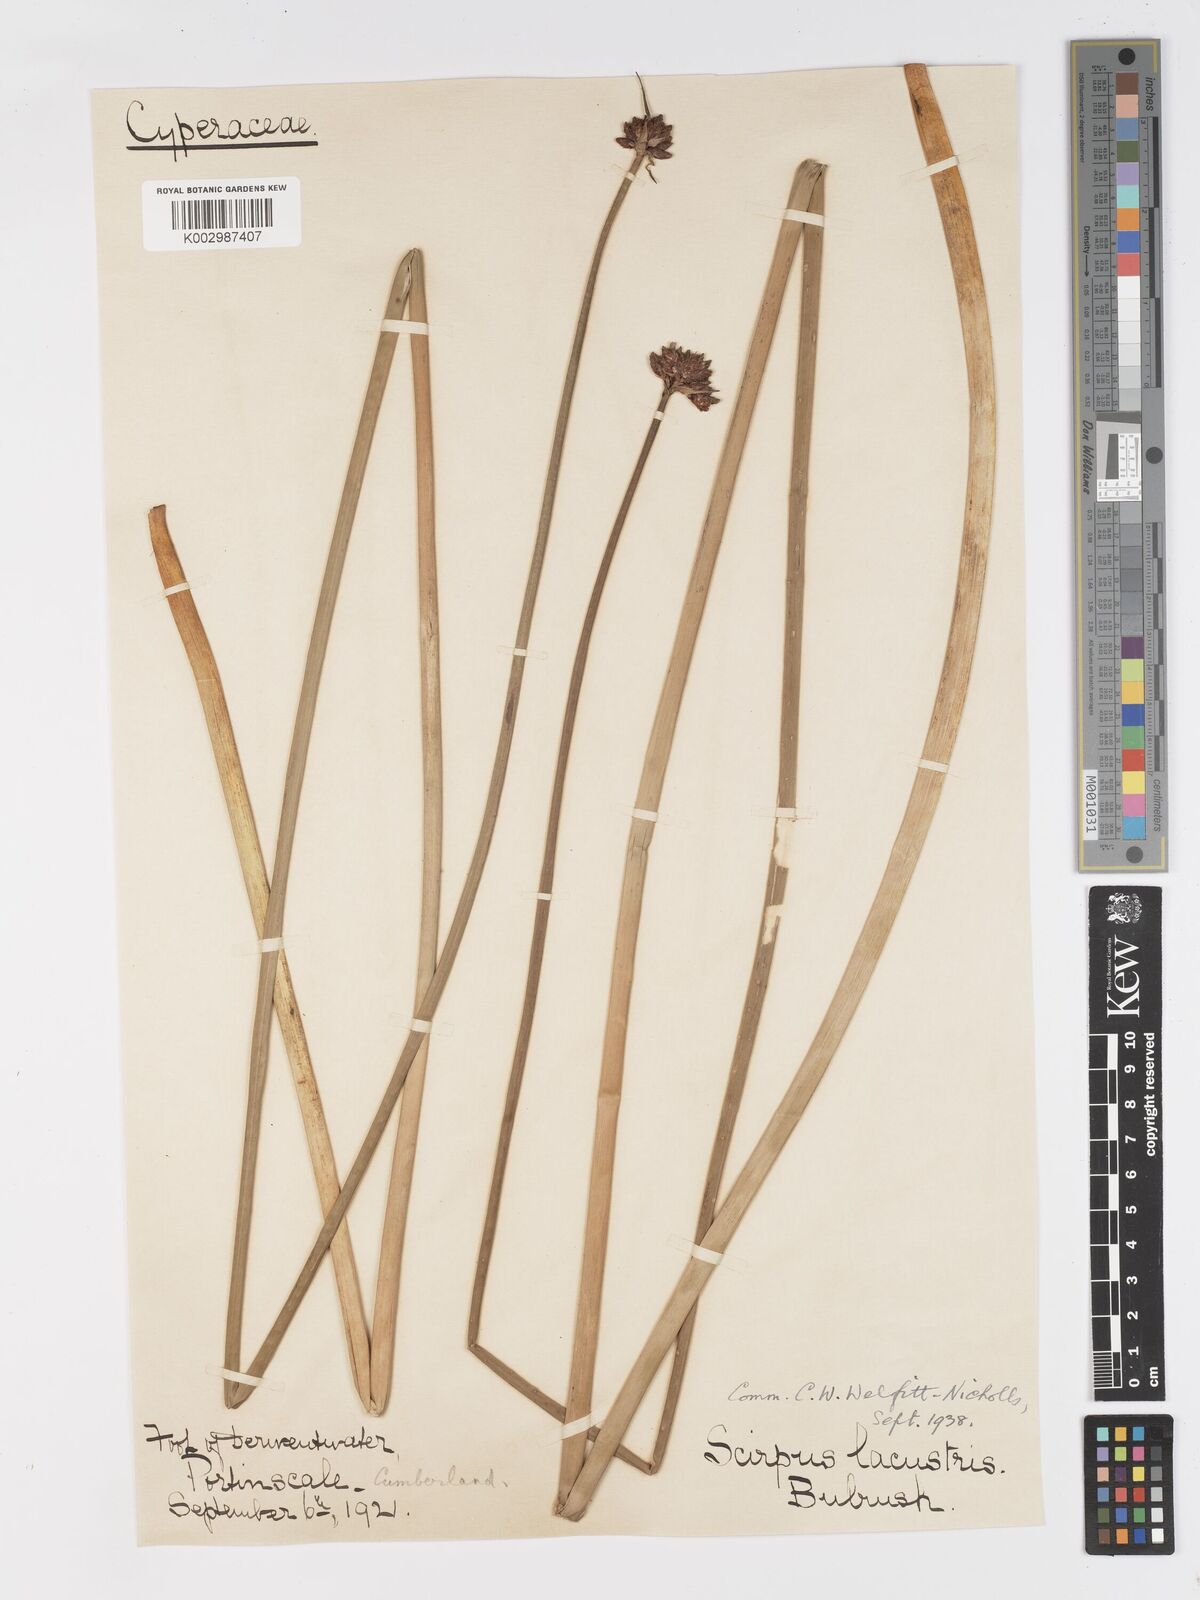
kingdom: Plantae
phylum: Tracheophyta
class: Liliopsida
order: Poales
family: Cyperaceae
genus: Schoenoplectus
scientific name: Schoenoplectus lacustris
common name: Common club-rush
